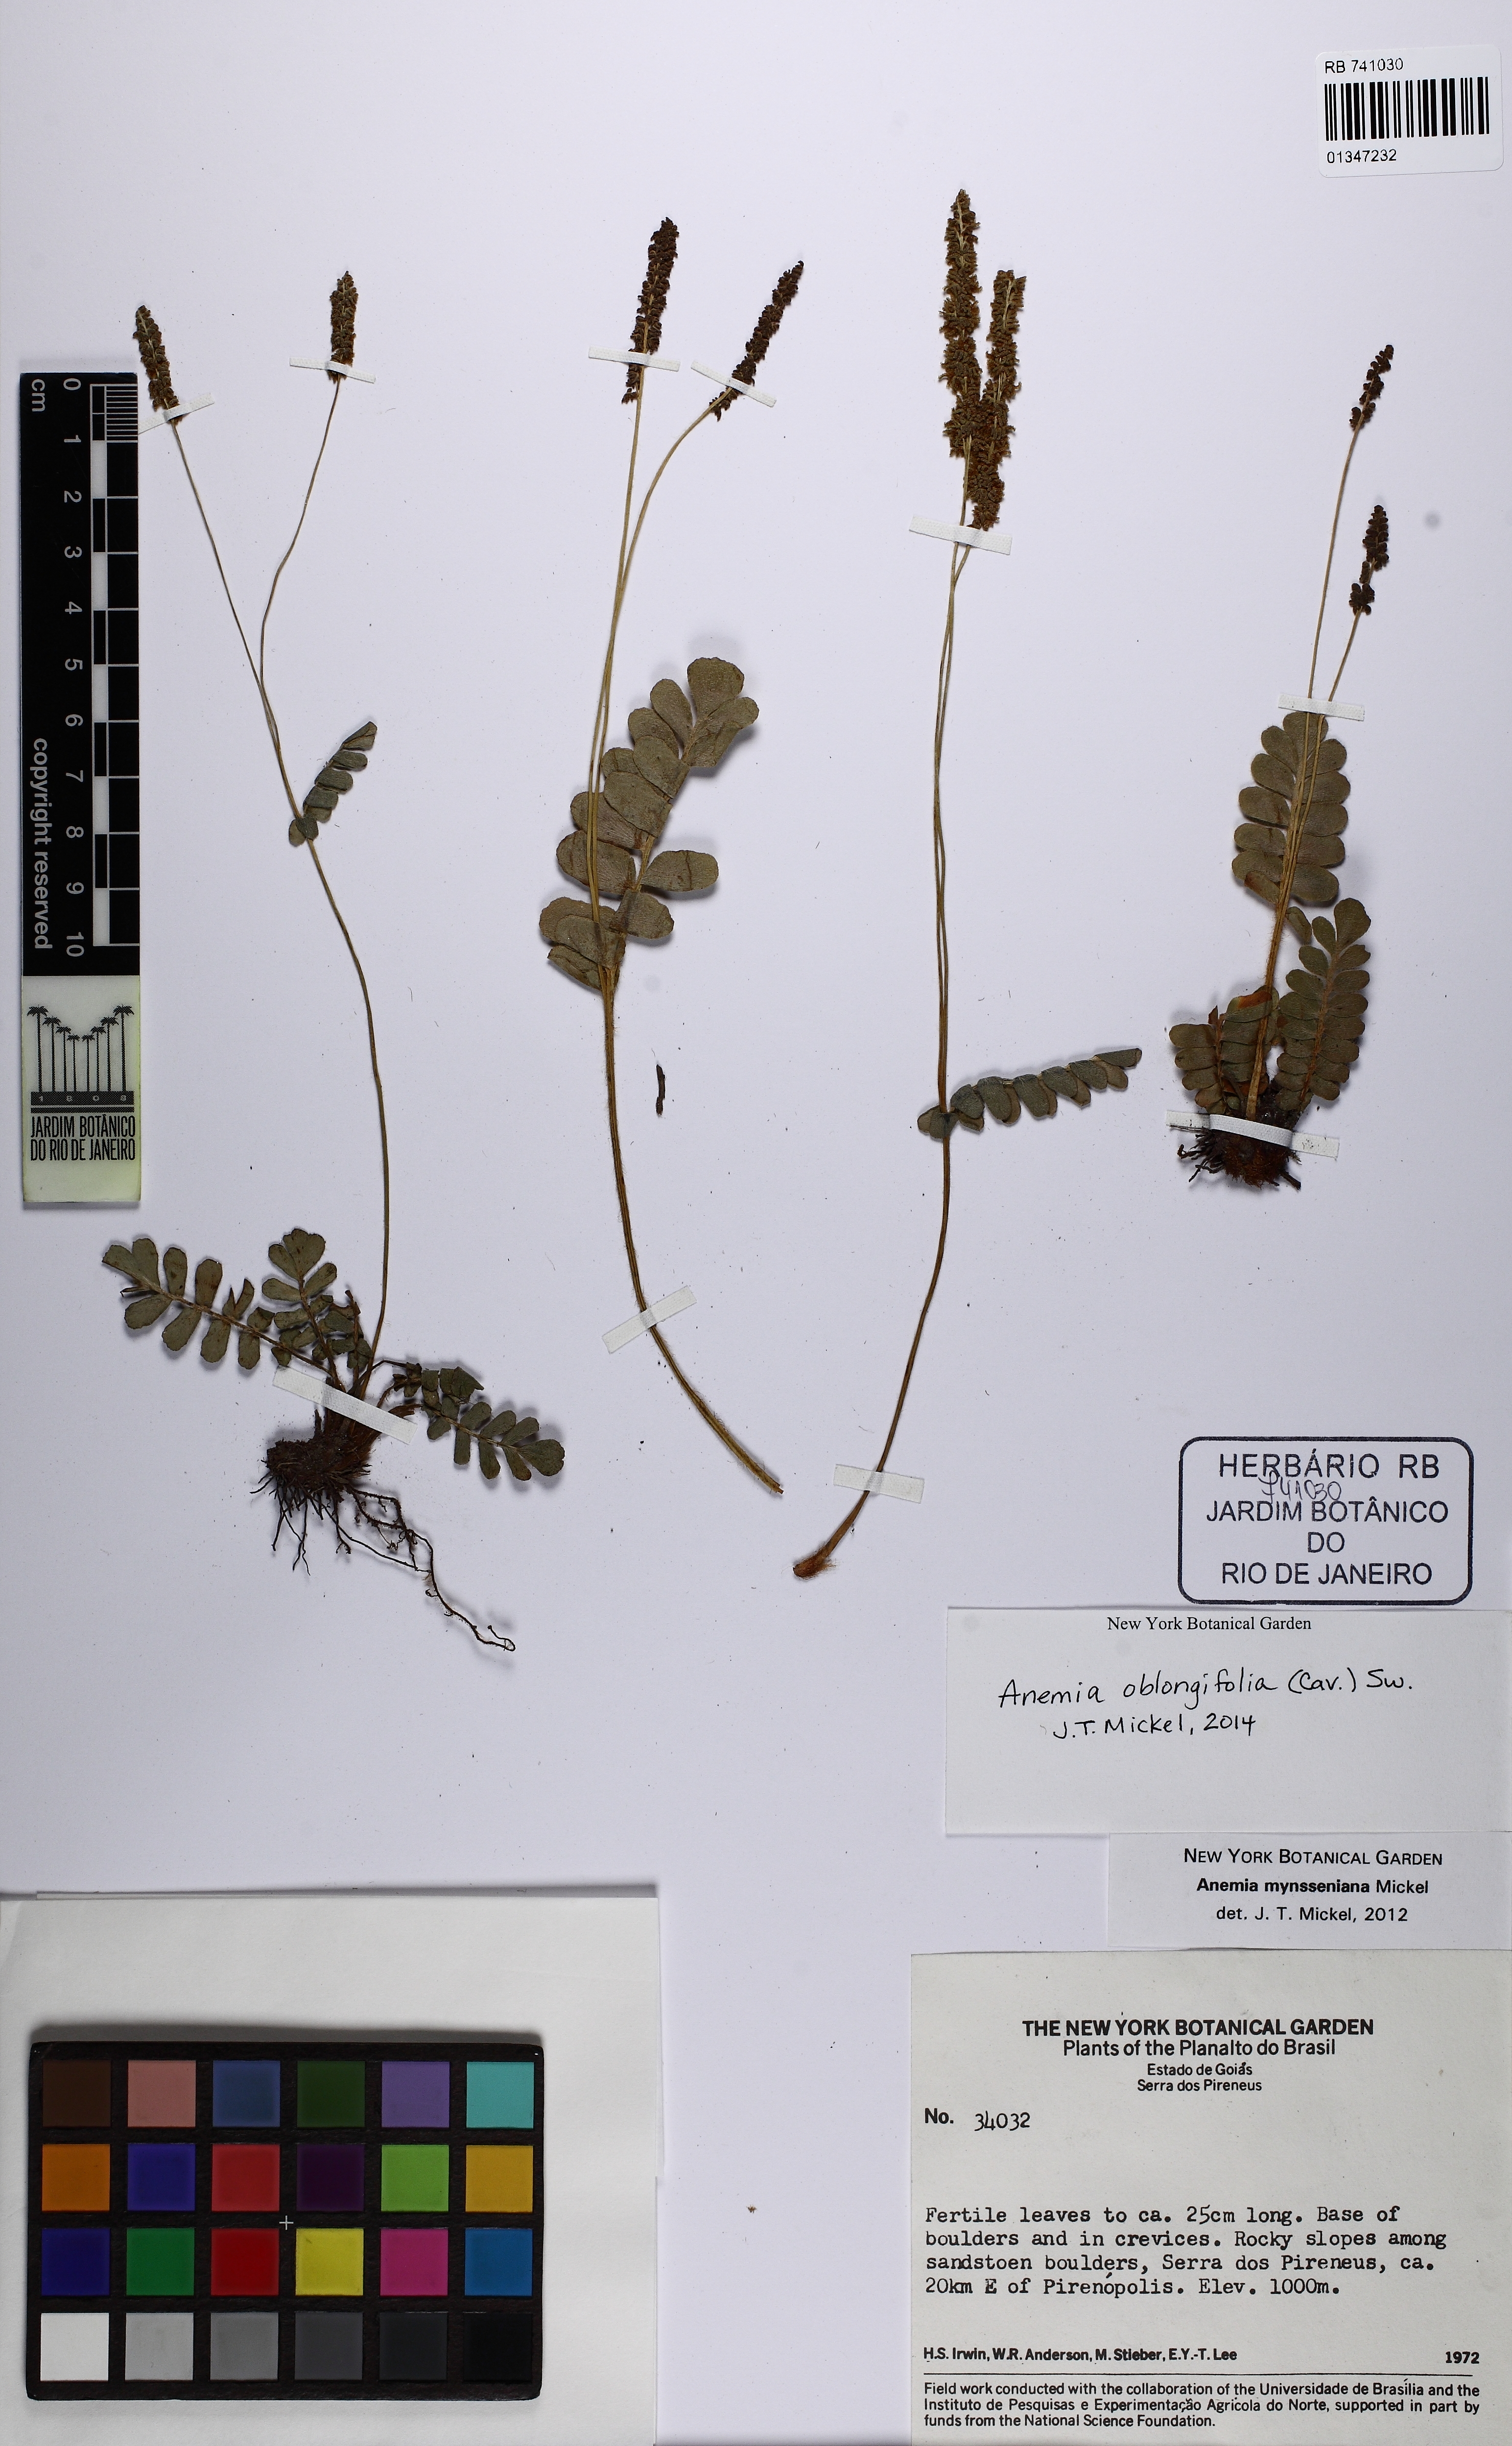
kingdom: Plantae
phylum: Tracheophyta
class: Polypodiopsida
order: Schizaeales
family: Anemiaceae
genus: Anemia
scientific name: Anemia oblongifolia
